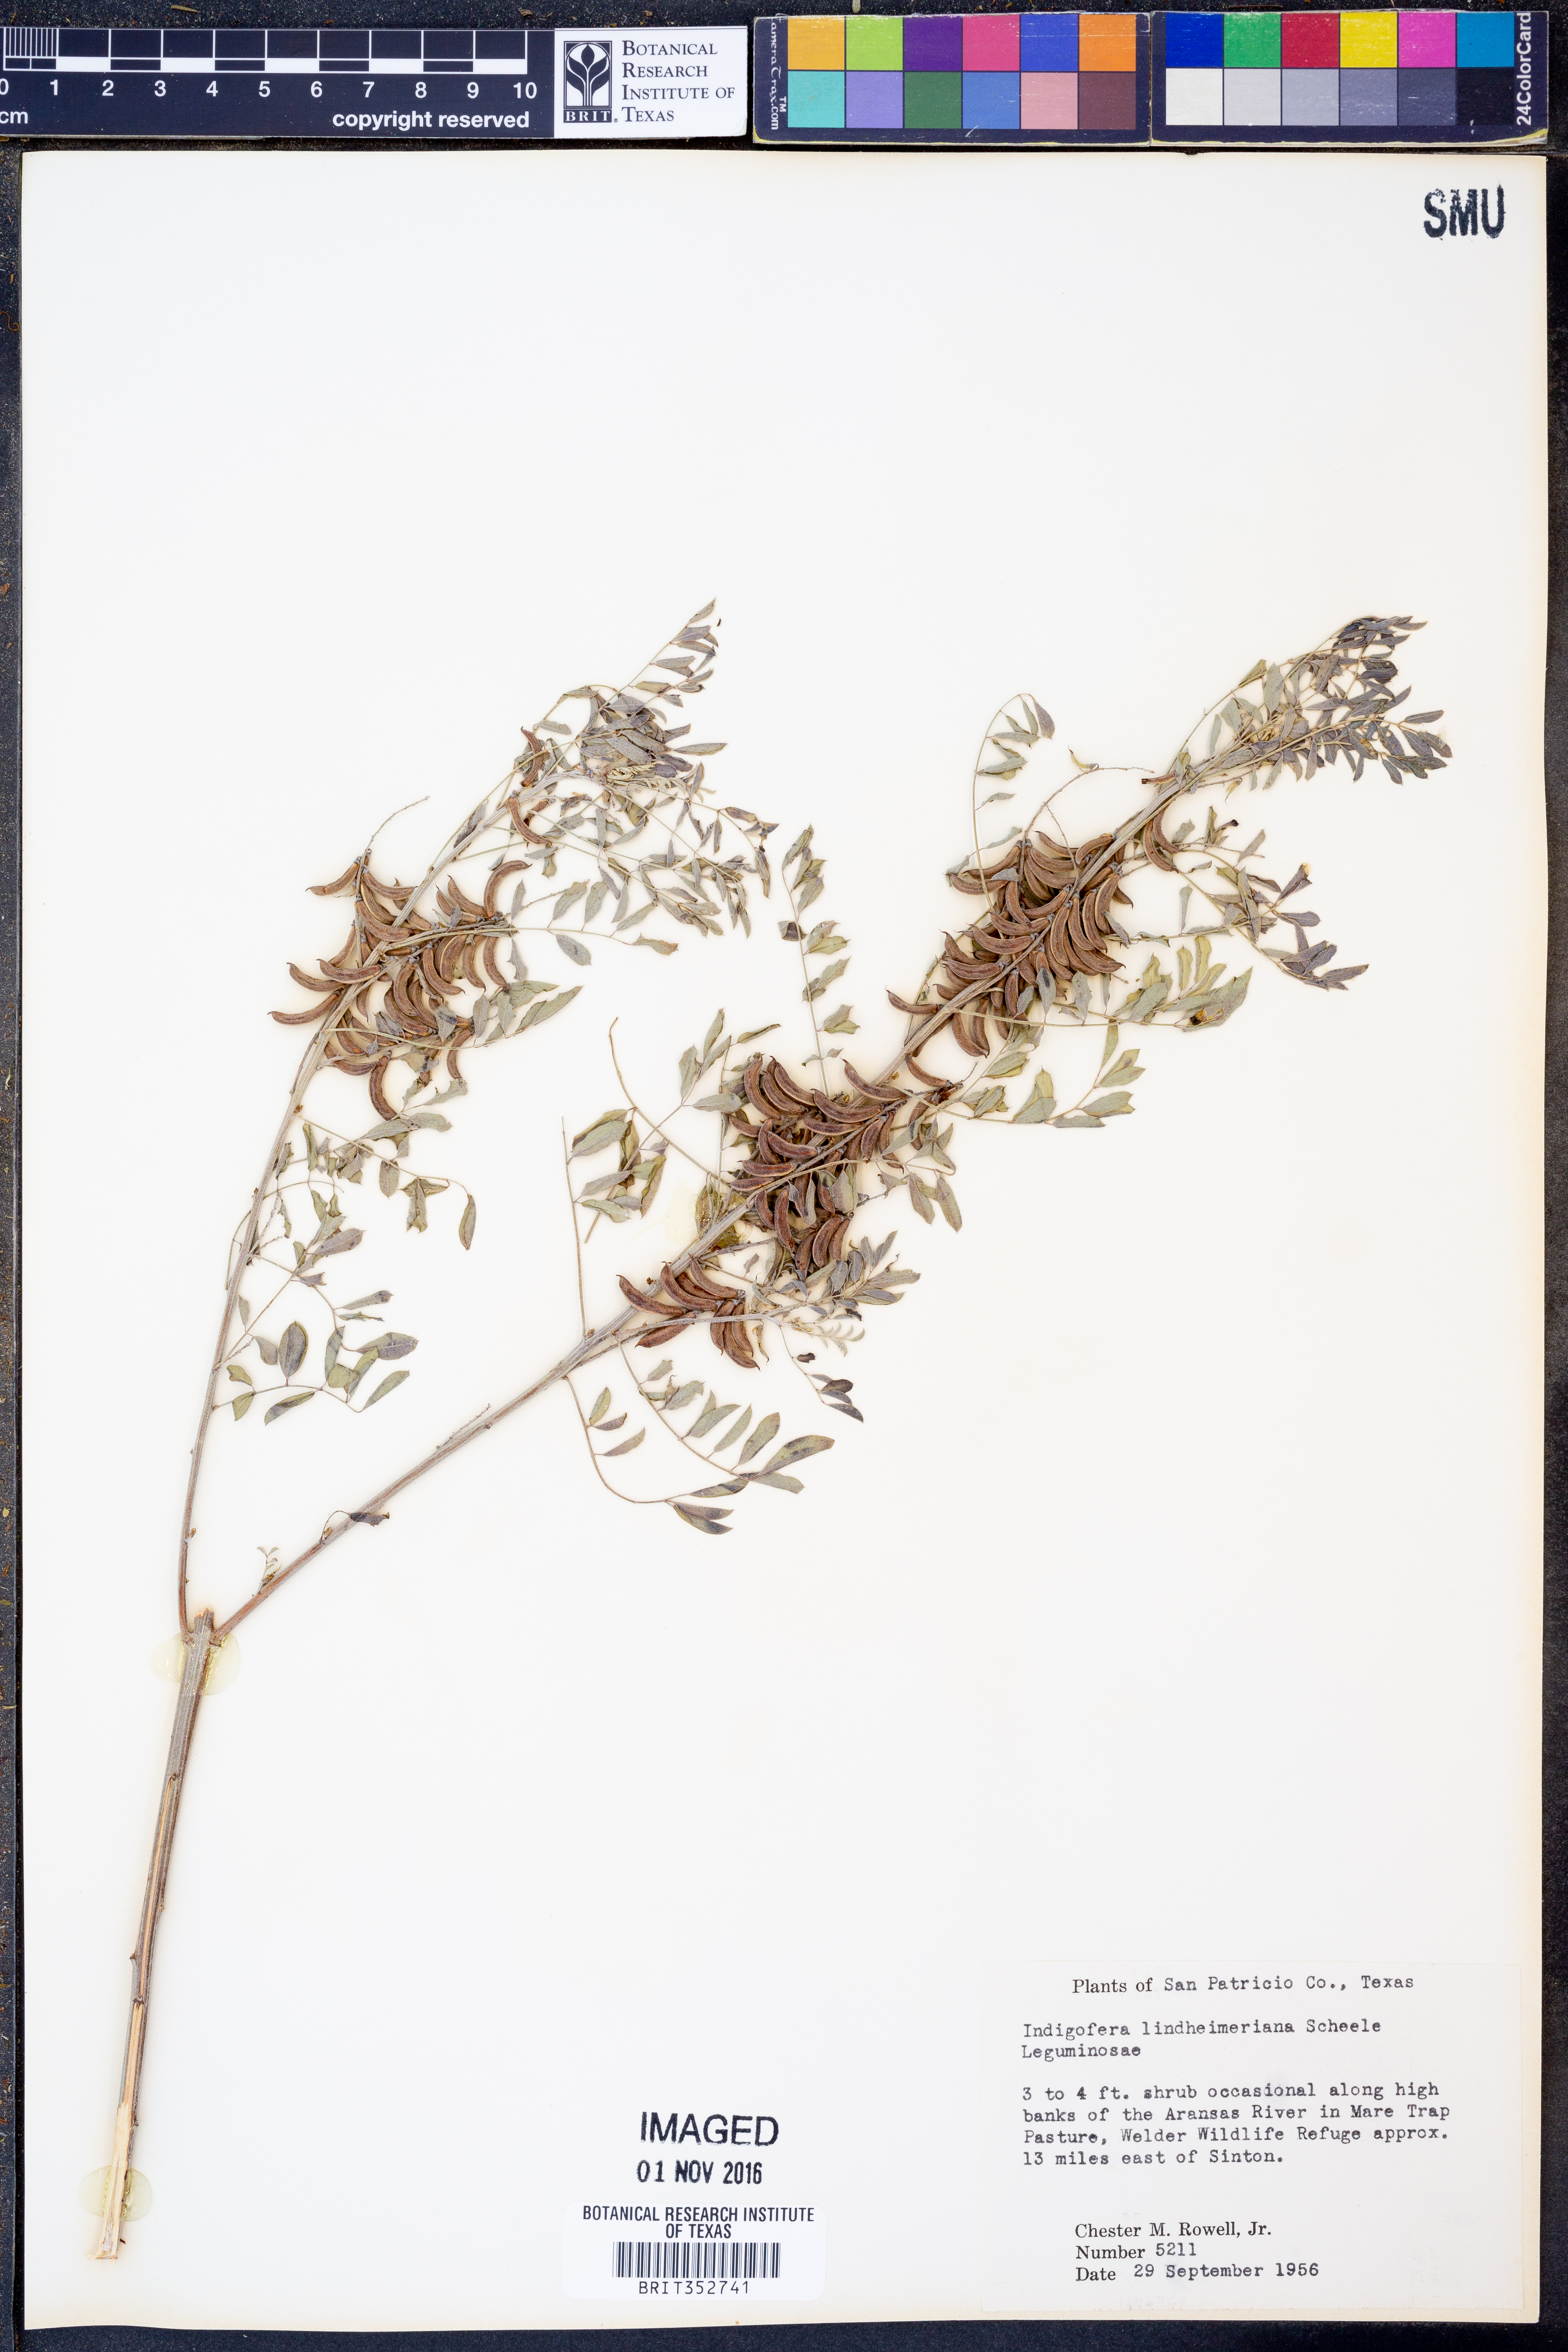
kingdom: Plantae
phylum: Tracheophyta
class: Magnoliopsida
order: Fabales
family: Fabaceae
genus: Indigofera
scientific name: Indigofera lindheimeriana
